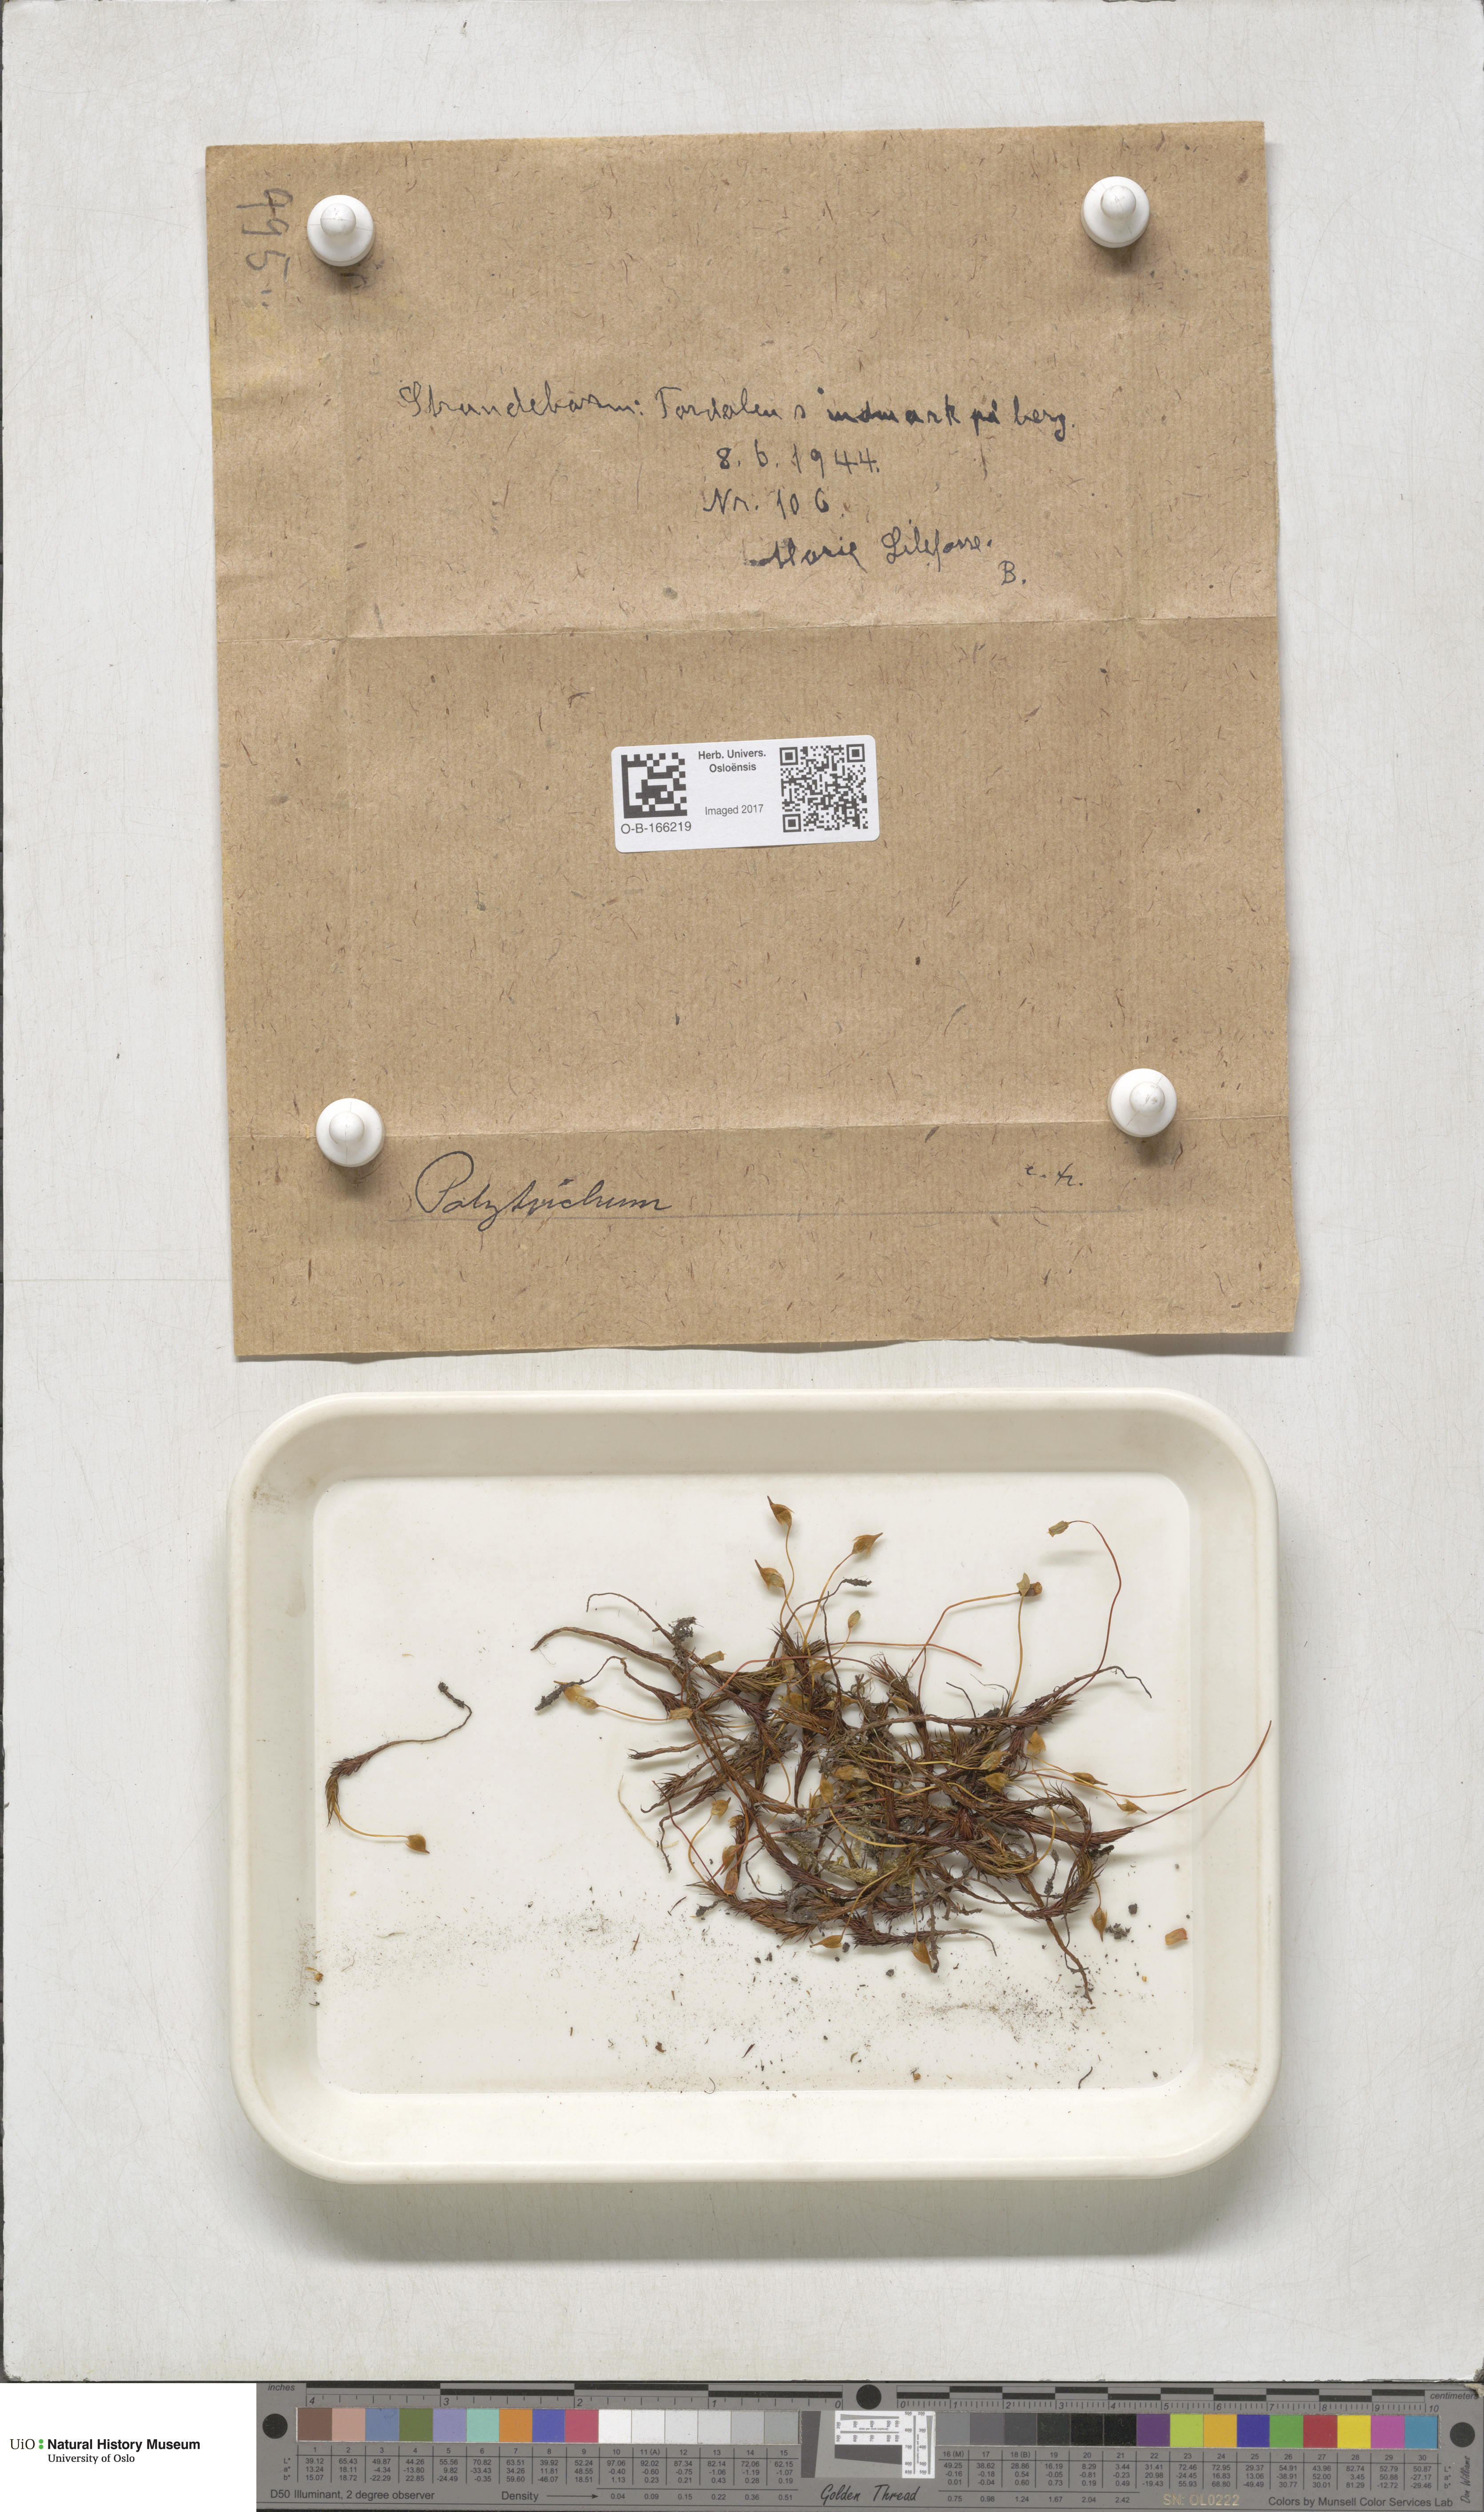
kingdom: Plantae
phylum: Bryophyta
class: Polytrichopsida
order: Polytrichales
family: Polytrichaceae
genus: Polytrichum
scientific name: Polytrichum
